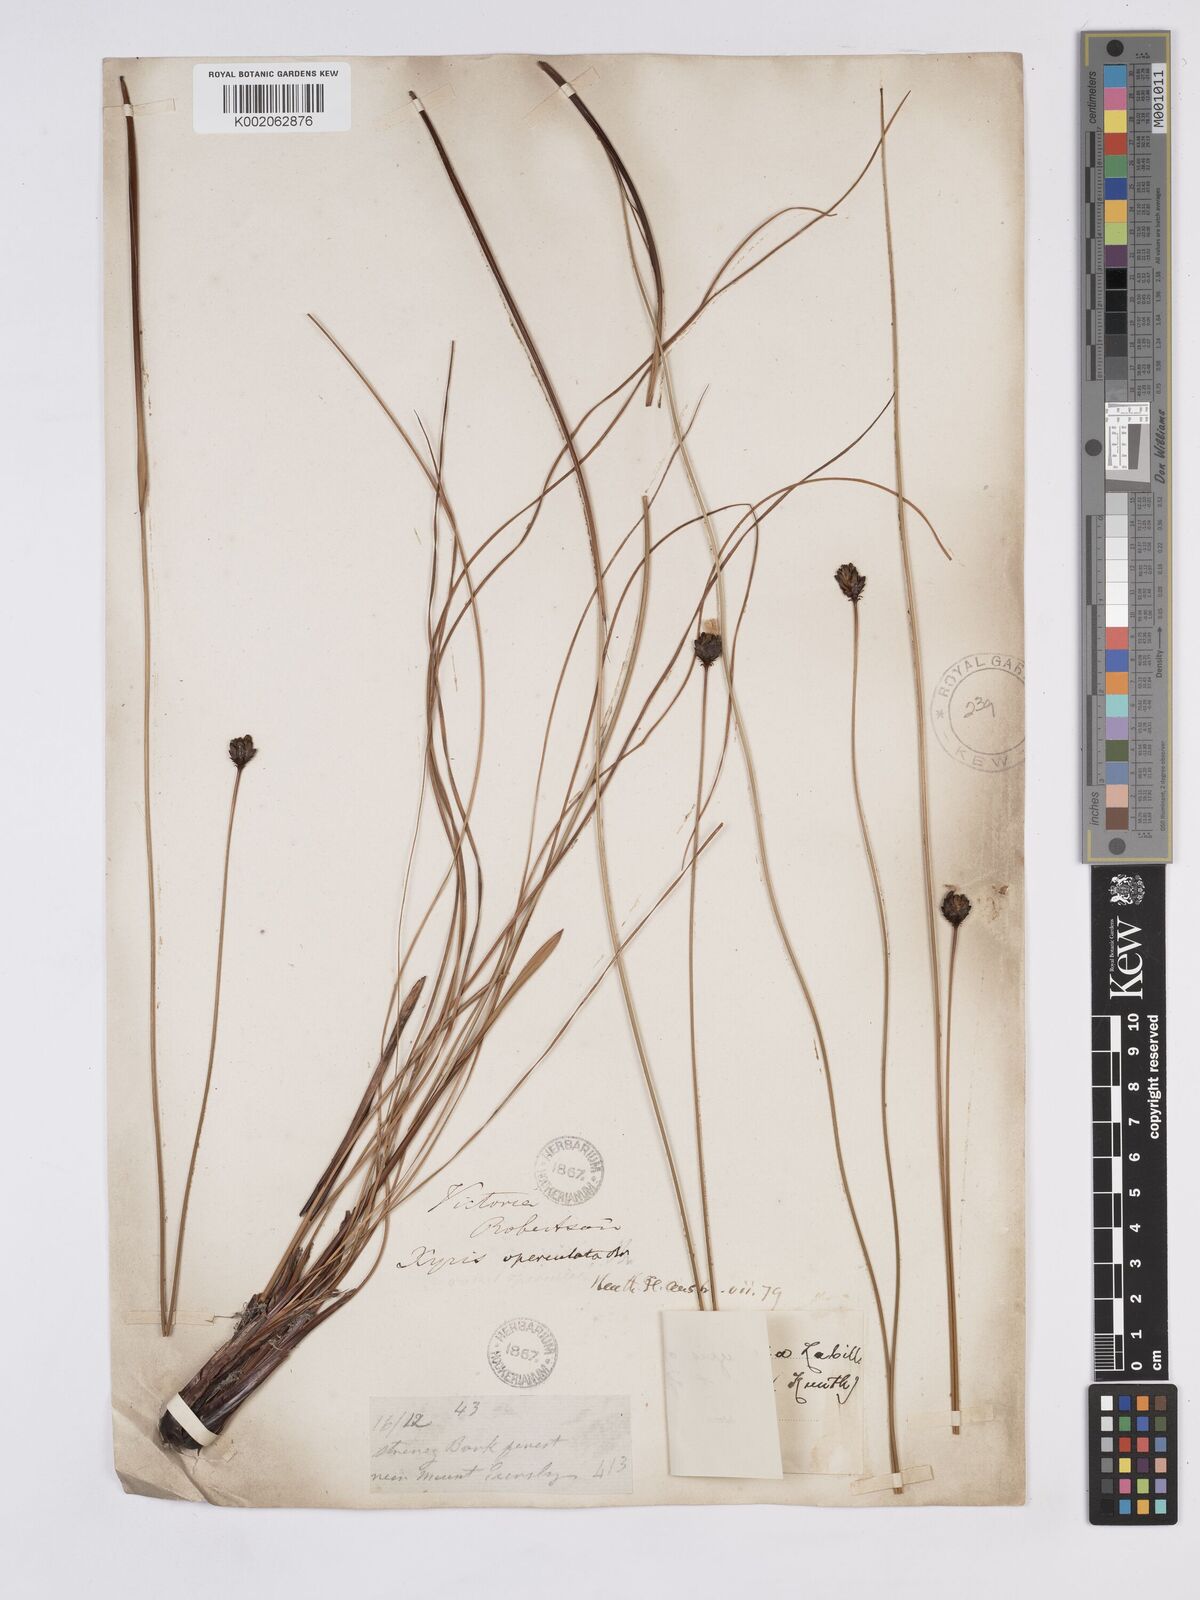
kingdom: Plantae
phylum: Tracheophyta
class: Liliopsida
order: Poales
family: Xyridaceae
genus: Xyris
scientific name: Xyris operculata
